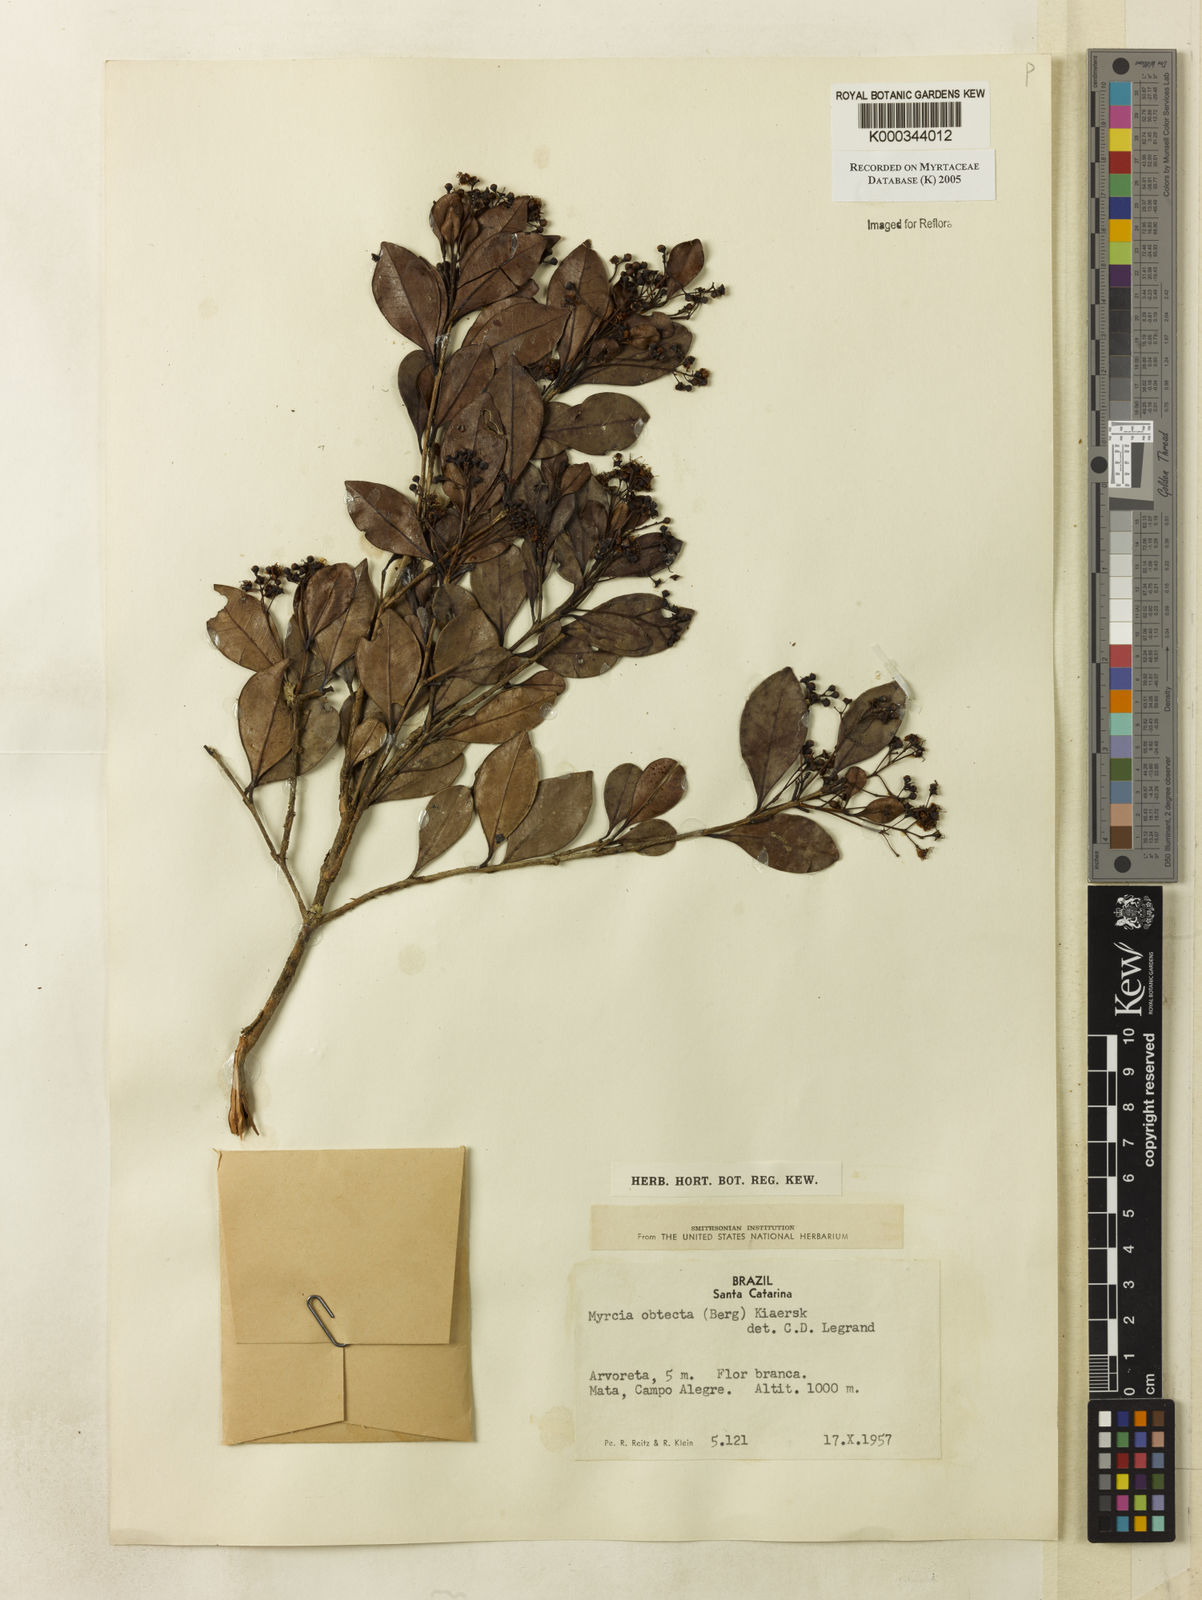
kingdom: Plantae
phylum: Tracheophyta
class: Magnoliopsida
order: Myrtales
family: Myrtaceae
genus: Myrcia
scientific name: Myrcia guianensis
